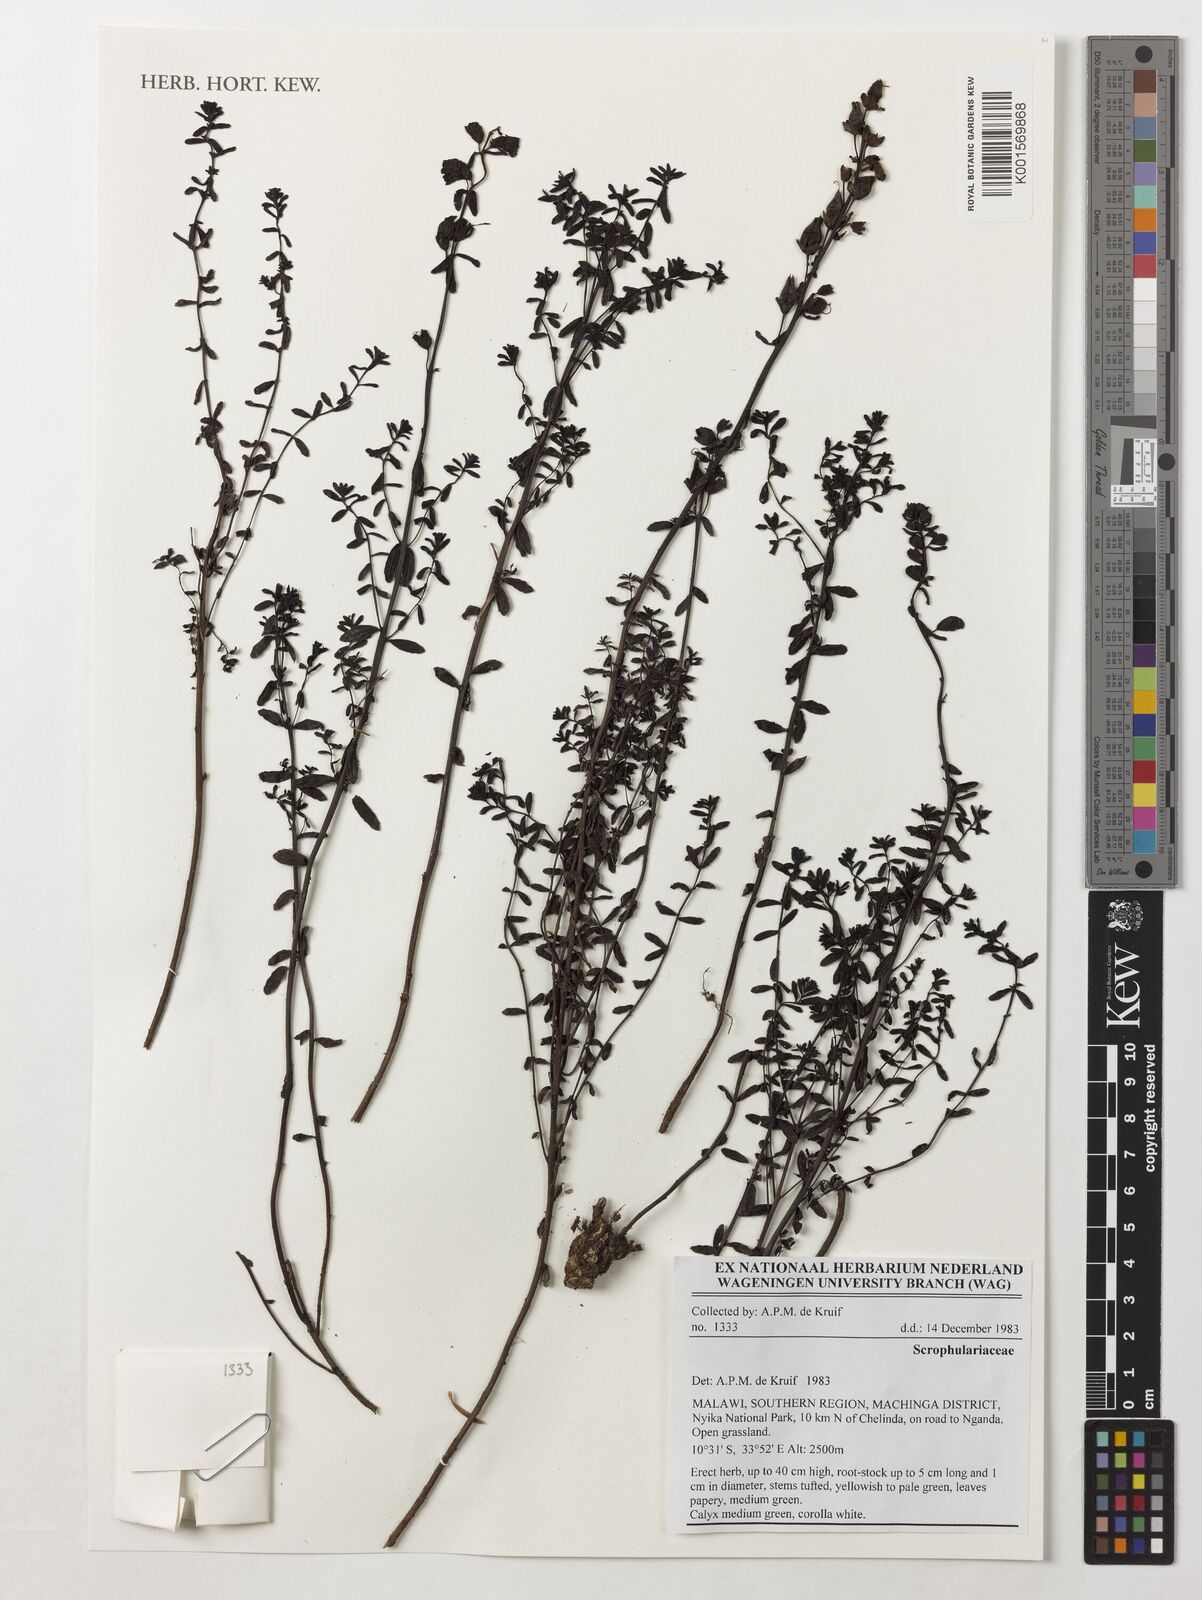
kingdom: Plantae
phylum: Tracheophyta
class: Magnoliopsida
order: Lamiales
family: Scrophulariaceae
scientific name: Scrophulariaceae
